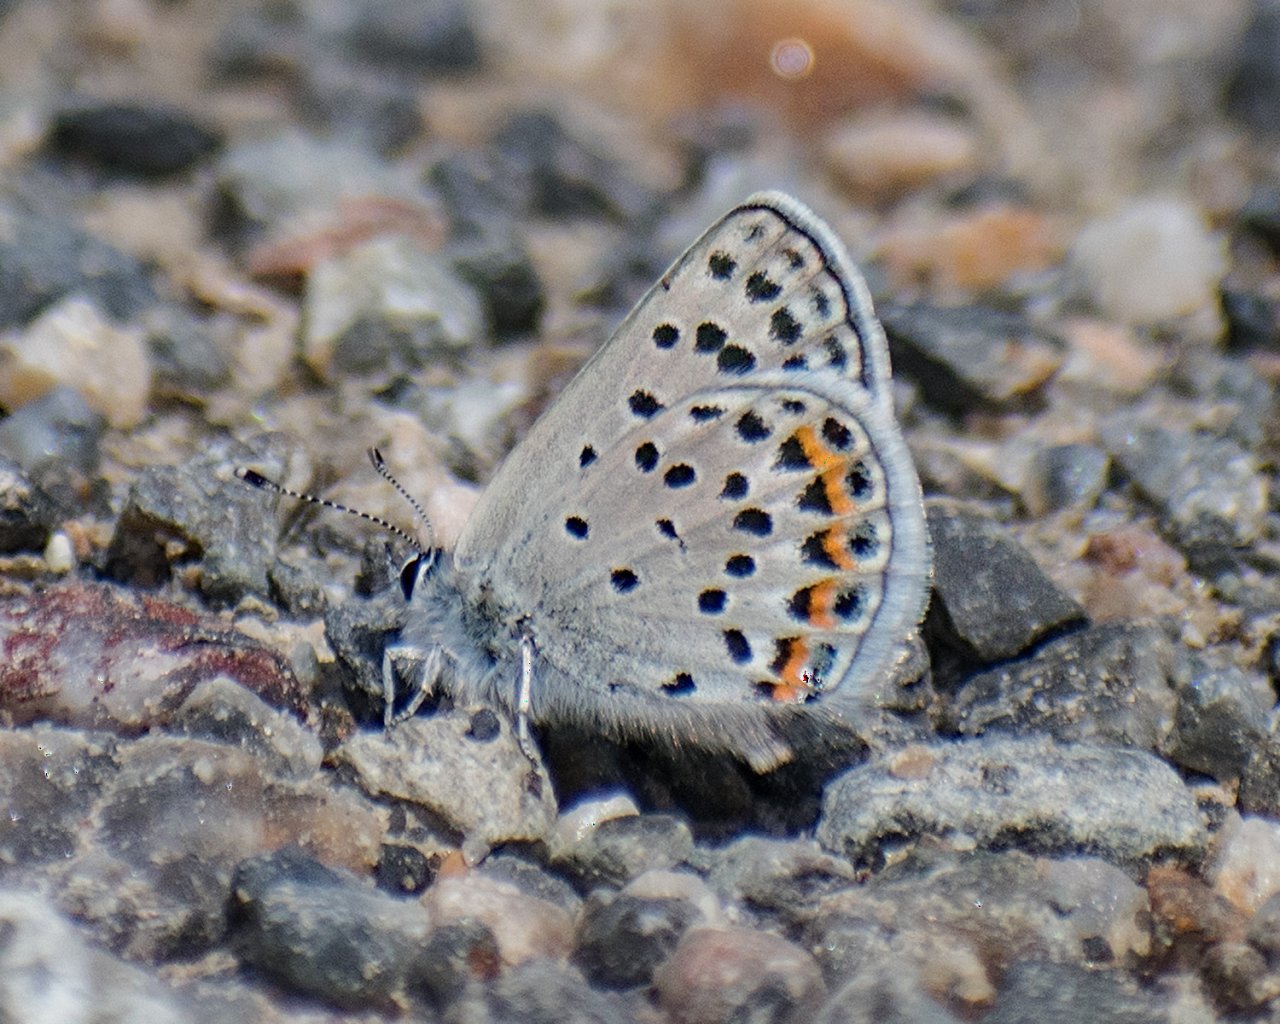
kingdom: Animalia
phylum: Arthropoda
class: Insecta
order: Lepidoptera
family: Lycaenidae
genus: Plebejus
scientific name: Plebejus lupini
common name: Lupine Blue
